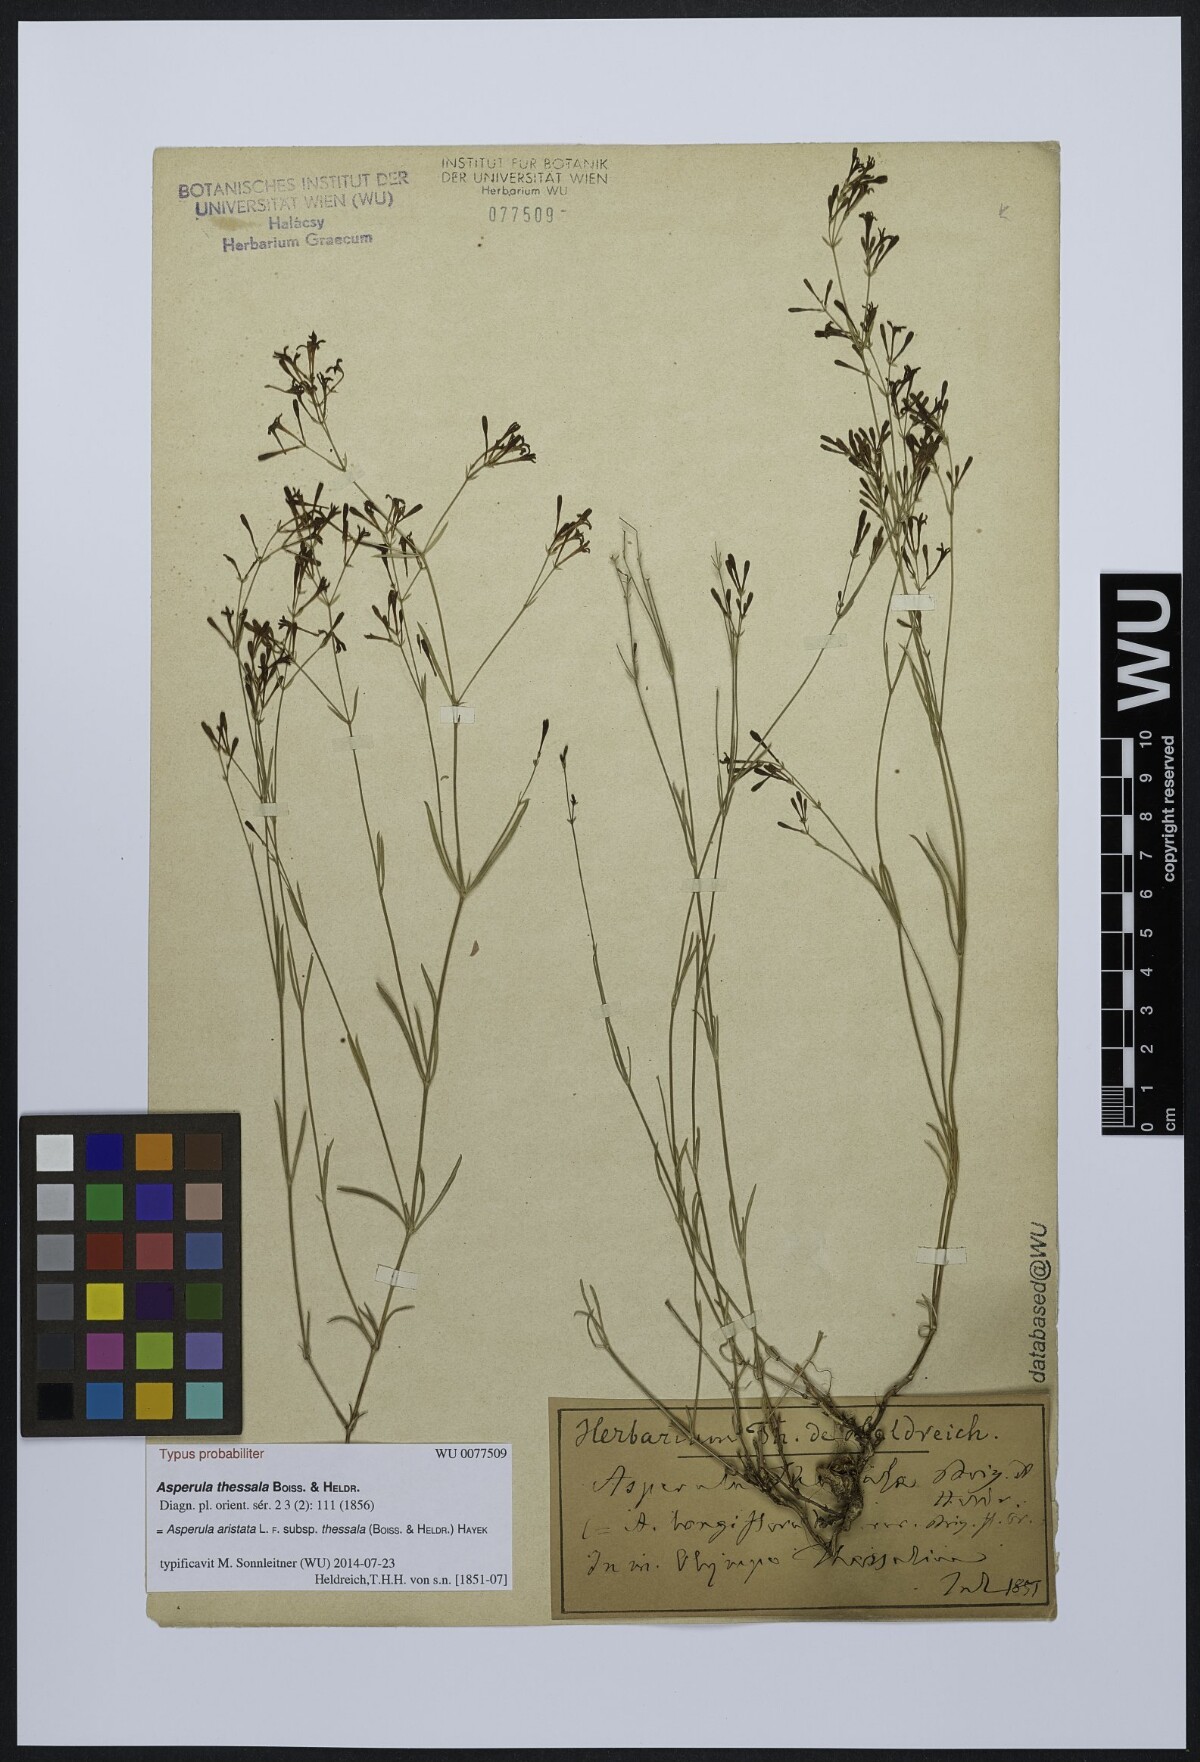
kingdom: Plantae
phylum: Tracheophyta
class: Magnoliopsida
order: Gentianales
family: Rubiaceae
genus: Cynanchica
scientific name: Cynanchica aristata
